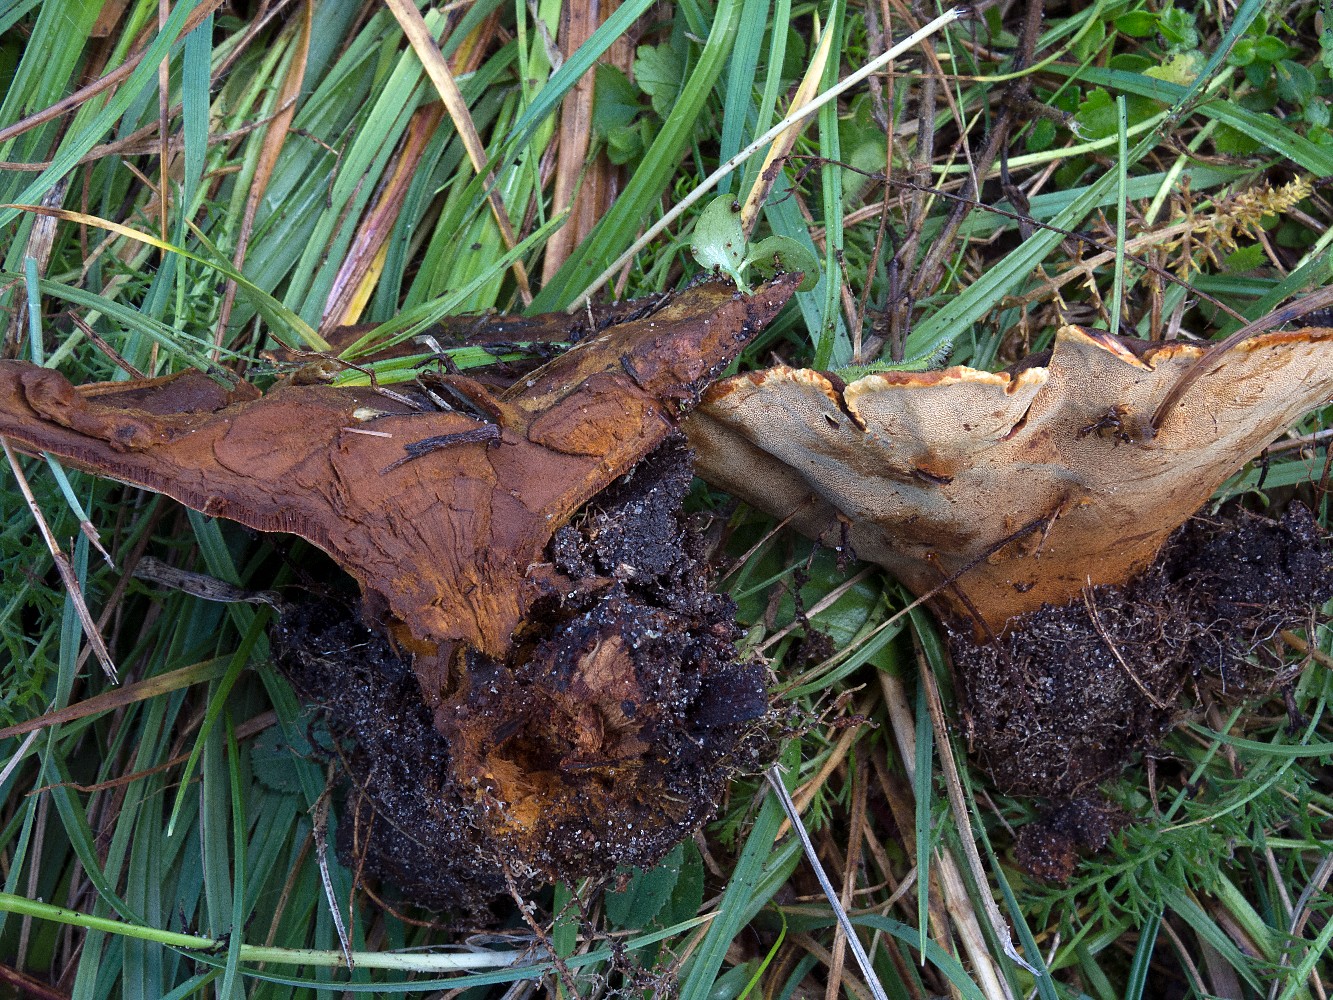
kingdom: Fungi
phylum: Basidiomycota
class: Agaricomycetes
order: Hymenochaetales
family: Hymenochaetaceae
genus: Phylloporia
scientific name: Phylloporia ribis
